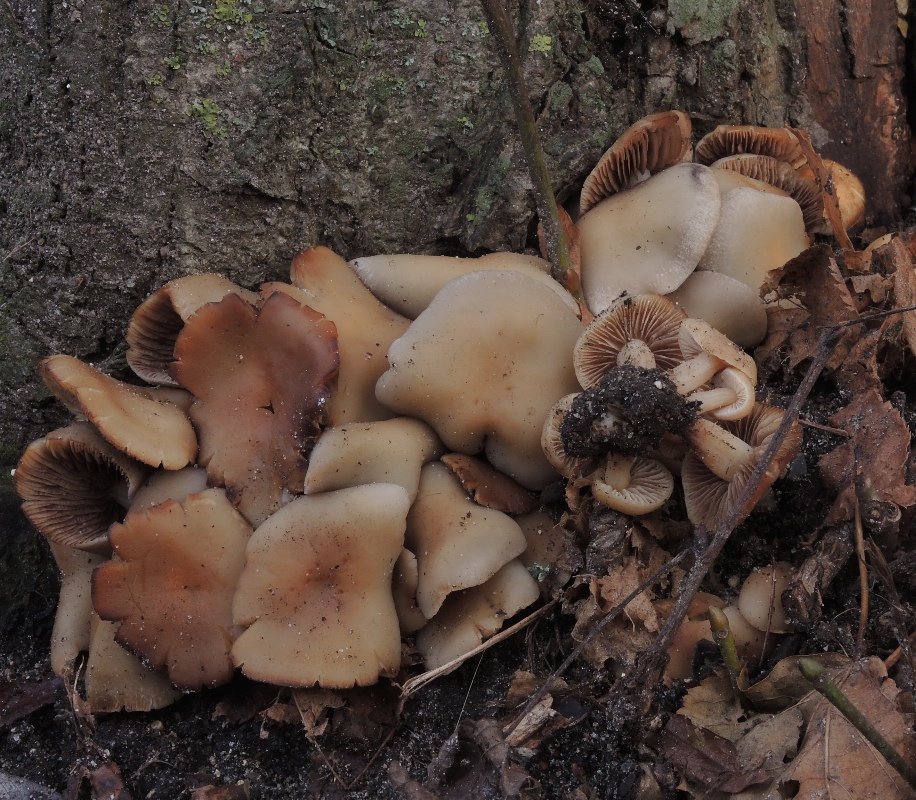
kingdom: Fungi
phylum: Basidiomycota
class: Agaricomycetes
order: Agaricales
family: Psathyrellaceae
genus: Homophron
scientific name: Homophron cernuum
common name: hvidlig mørkhat
